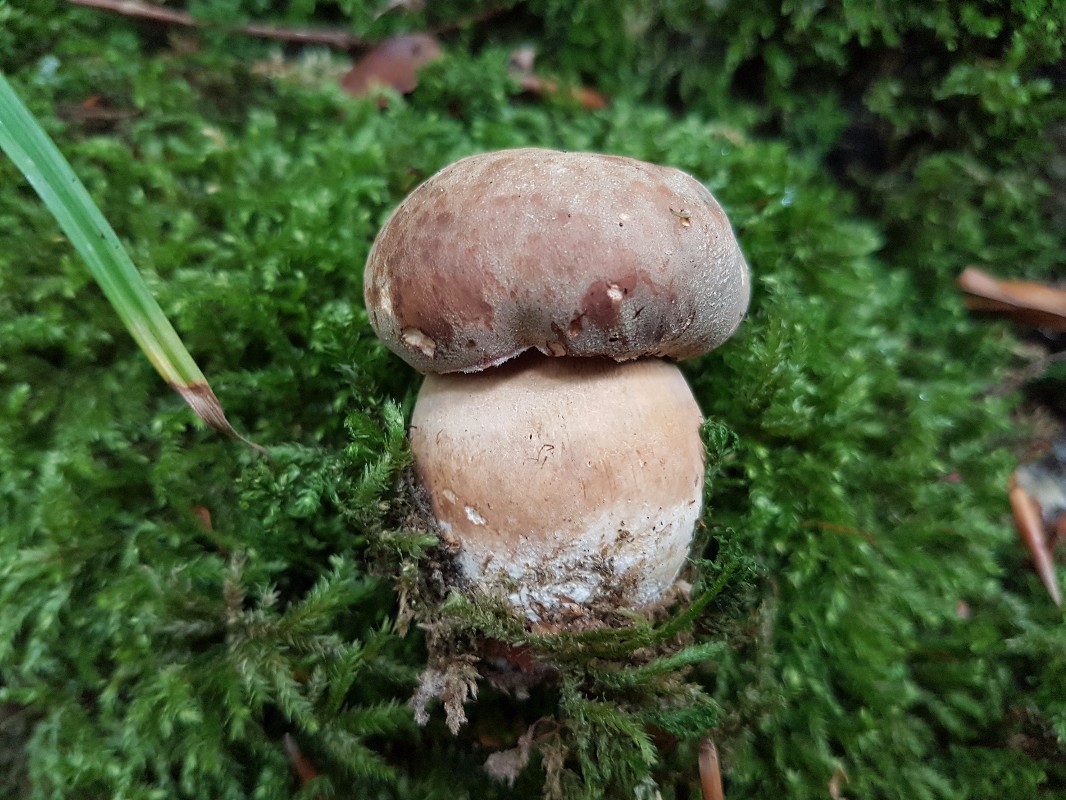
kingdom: Fungi
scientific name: Fungi
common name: bronze-rørhat
